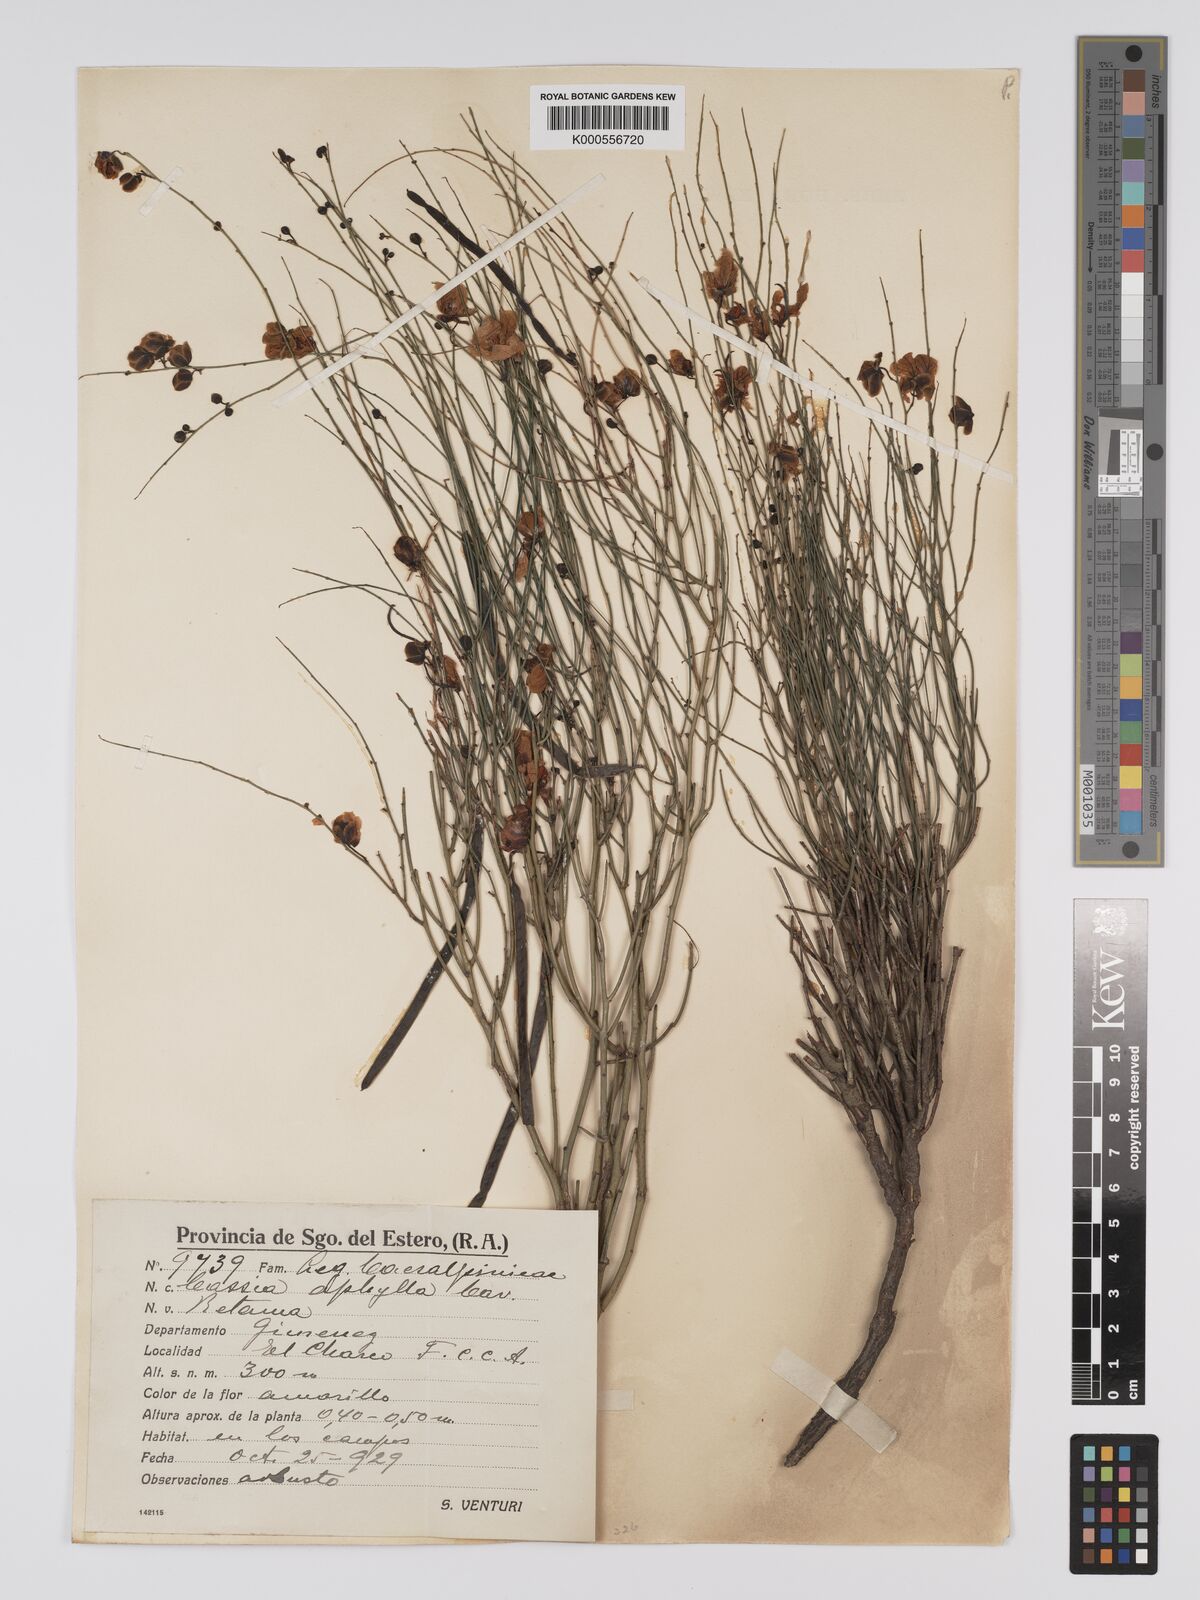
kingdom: Plantae
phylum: Tracheophyta
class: Magnoliopsida
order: Fabales
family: Fabaceae
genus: Senna
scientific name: Senna aphylla
